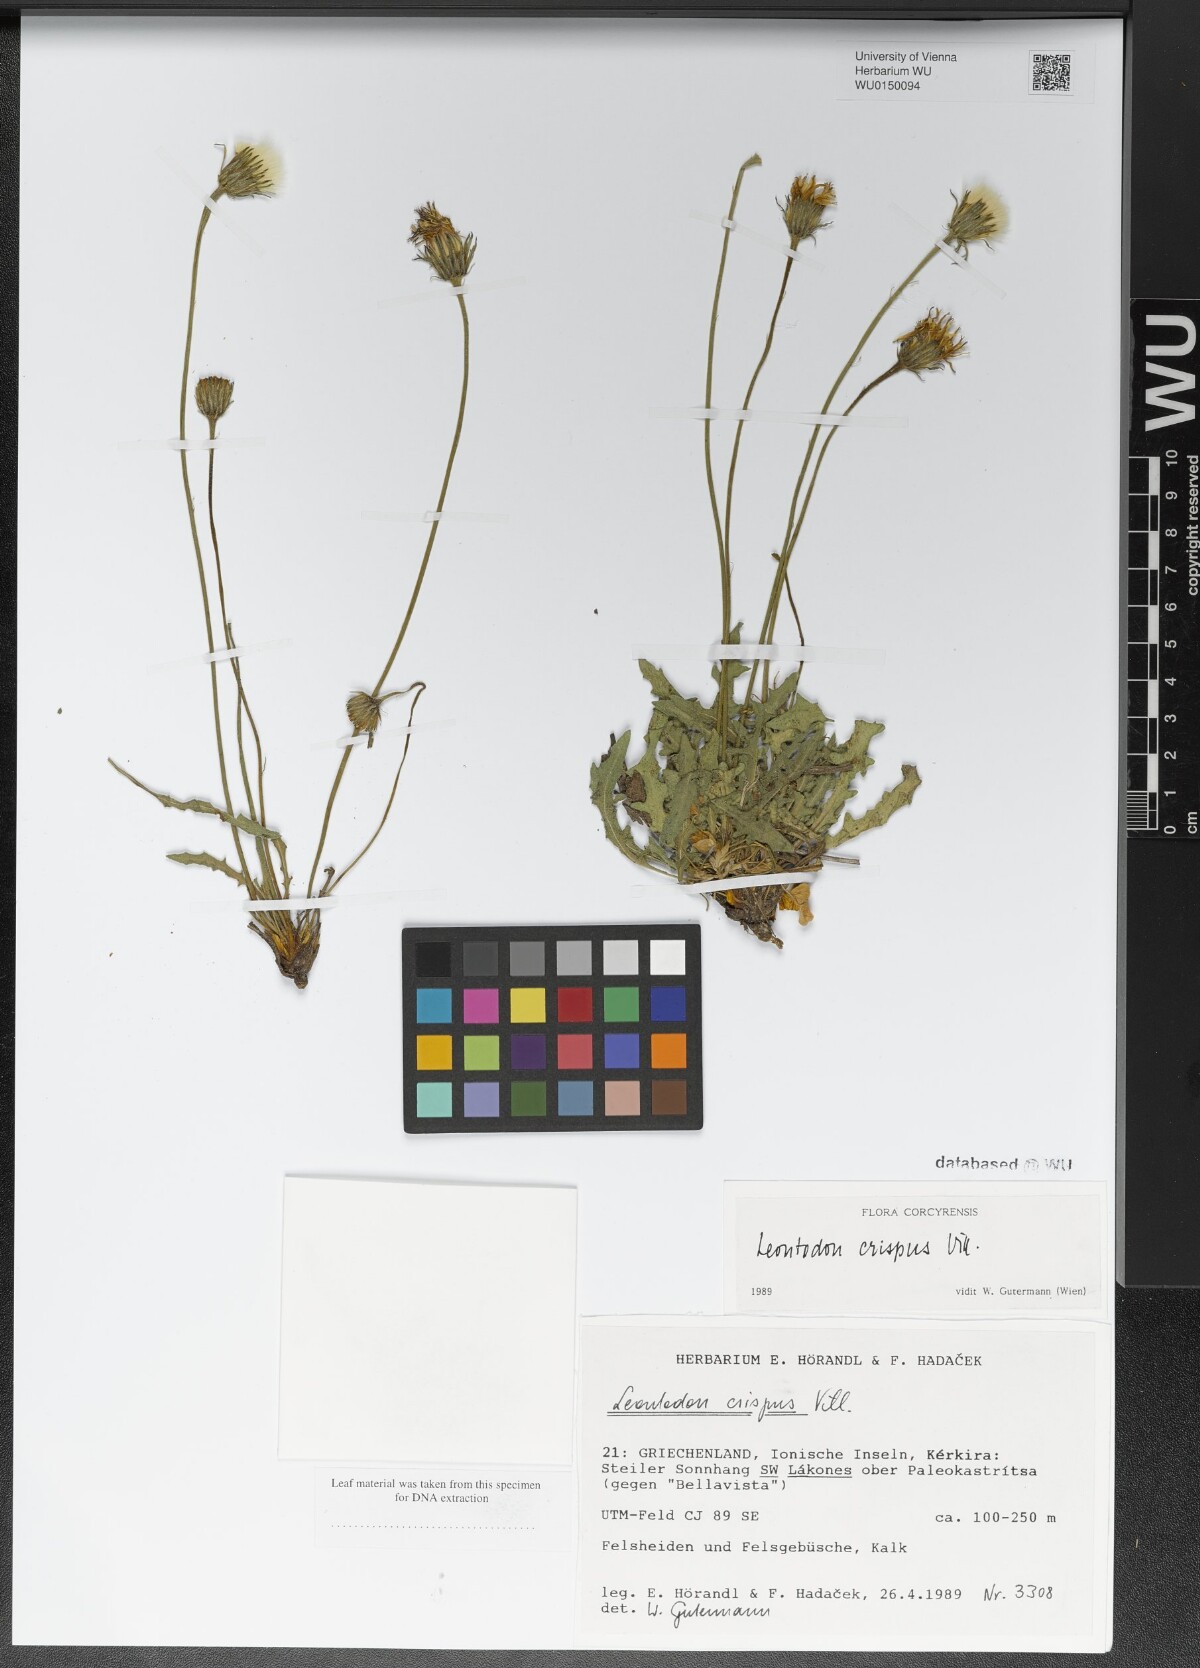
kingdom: Plantae
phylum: Tracheophyta
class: Magnoliopsida
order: Asterales
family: Asteraceae
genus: Leontodon
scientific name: Leontodon crispus
